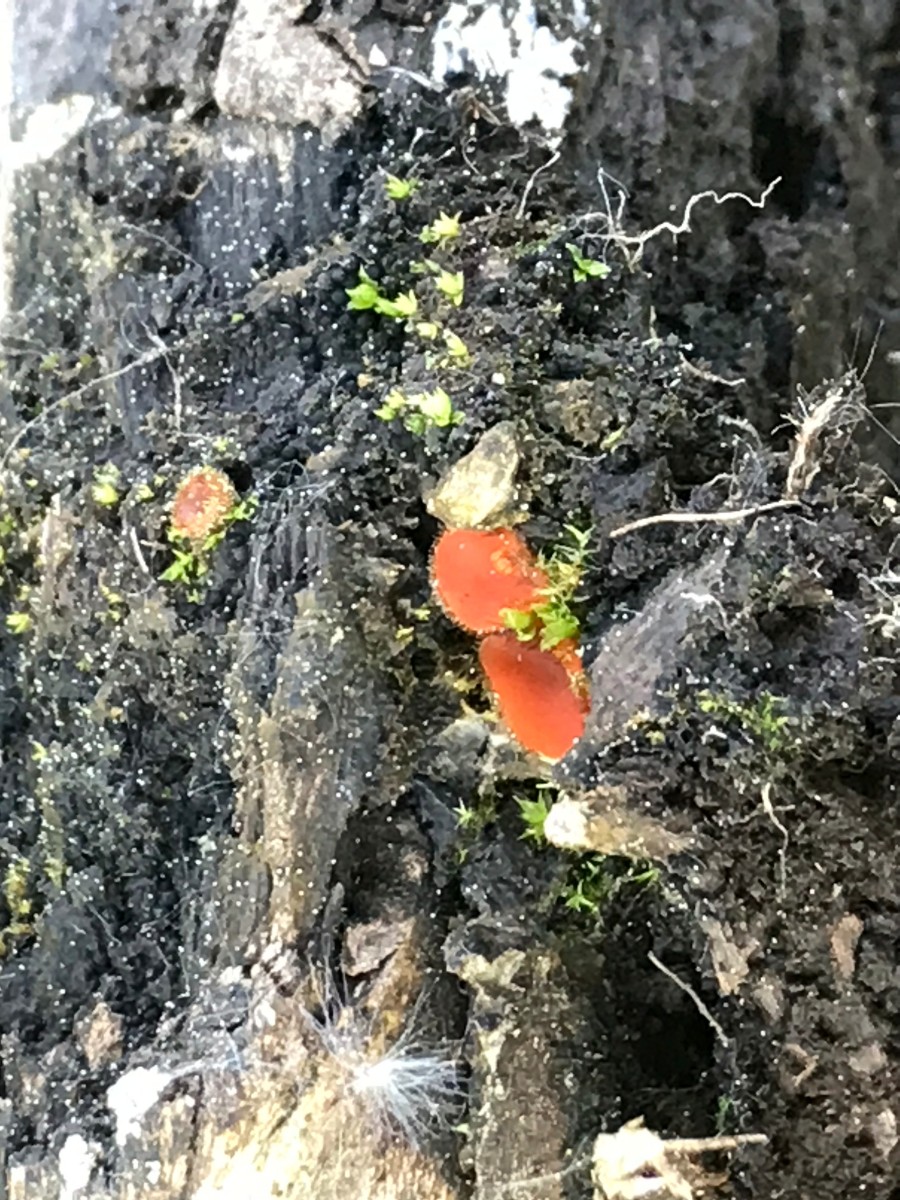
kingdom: Fungi
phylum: Ascomycota
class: Pezizomycetes
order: Pezizales
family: Pyronemataceae
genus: Scutellinia
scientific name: Scutellinia
